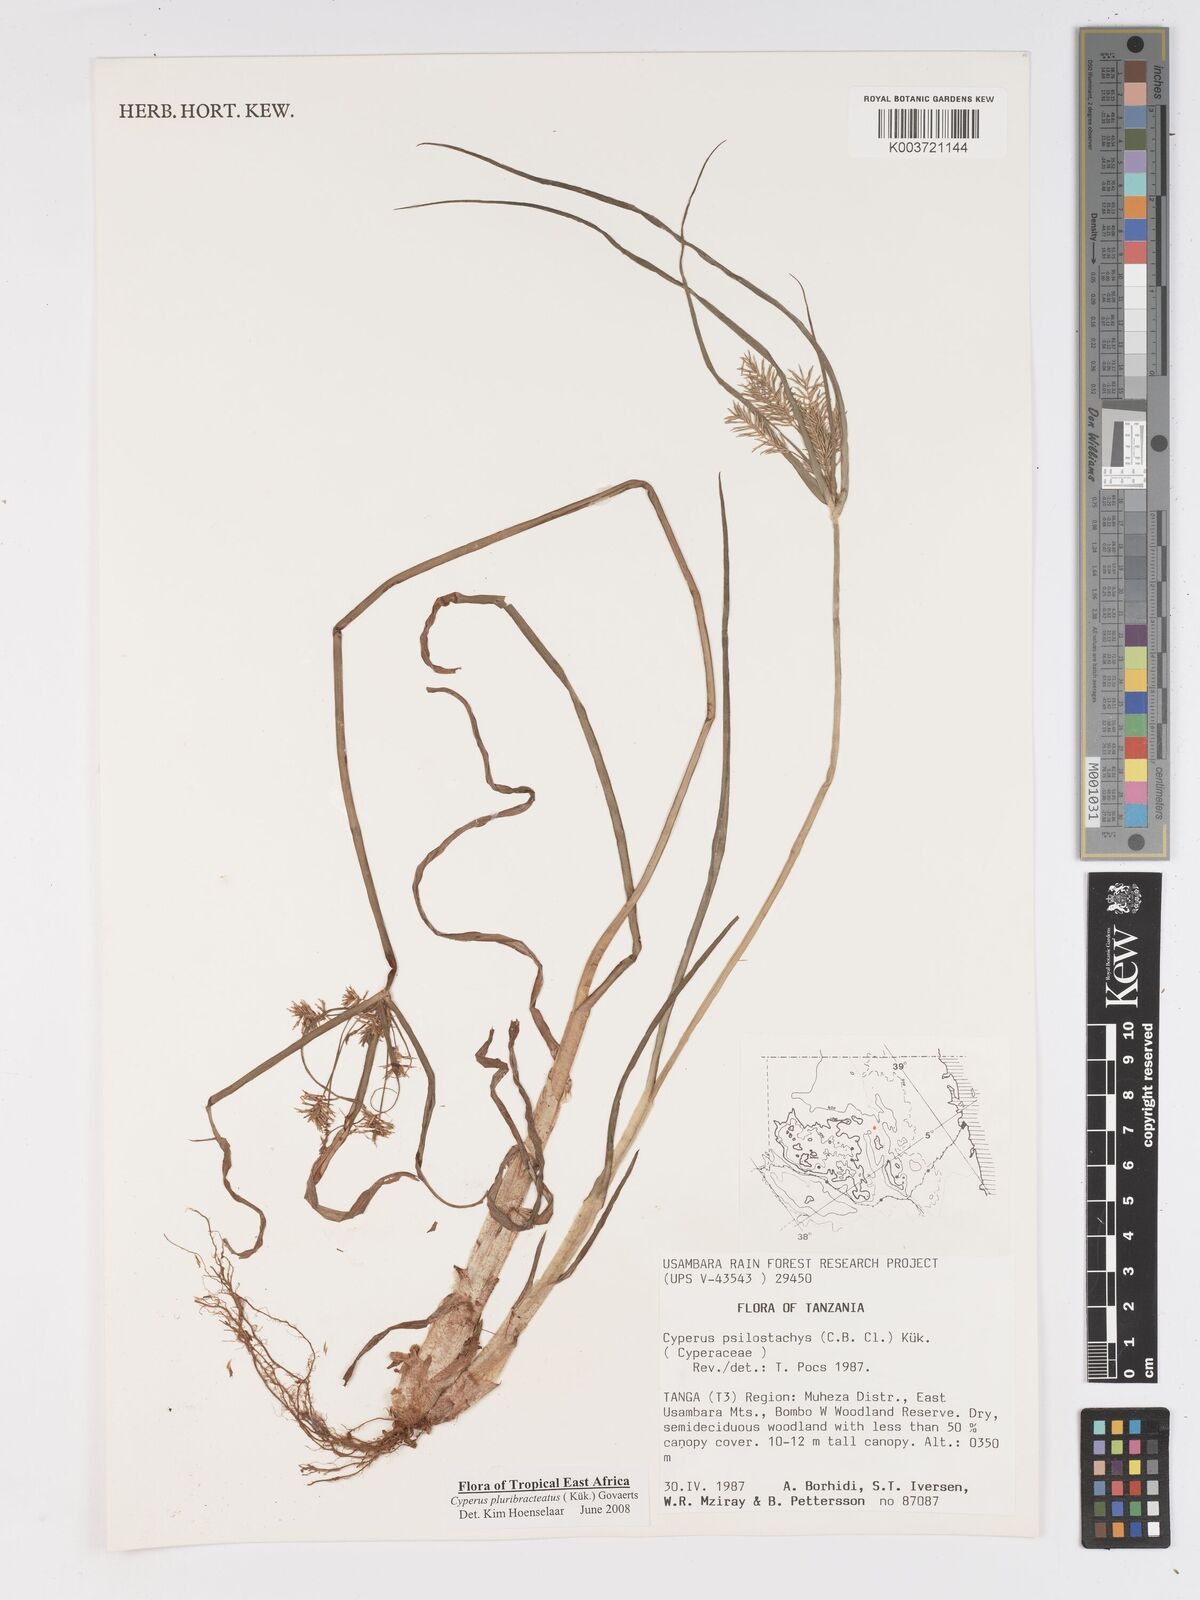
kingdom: Plantae
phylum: Tracheophyta
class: Liliopsida
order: Poales
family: Cyperaceae
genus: Cyperus
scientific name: Cyperus trigonellus
